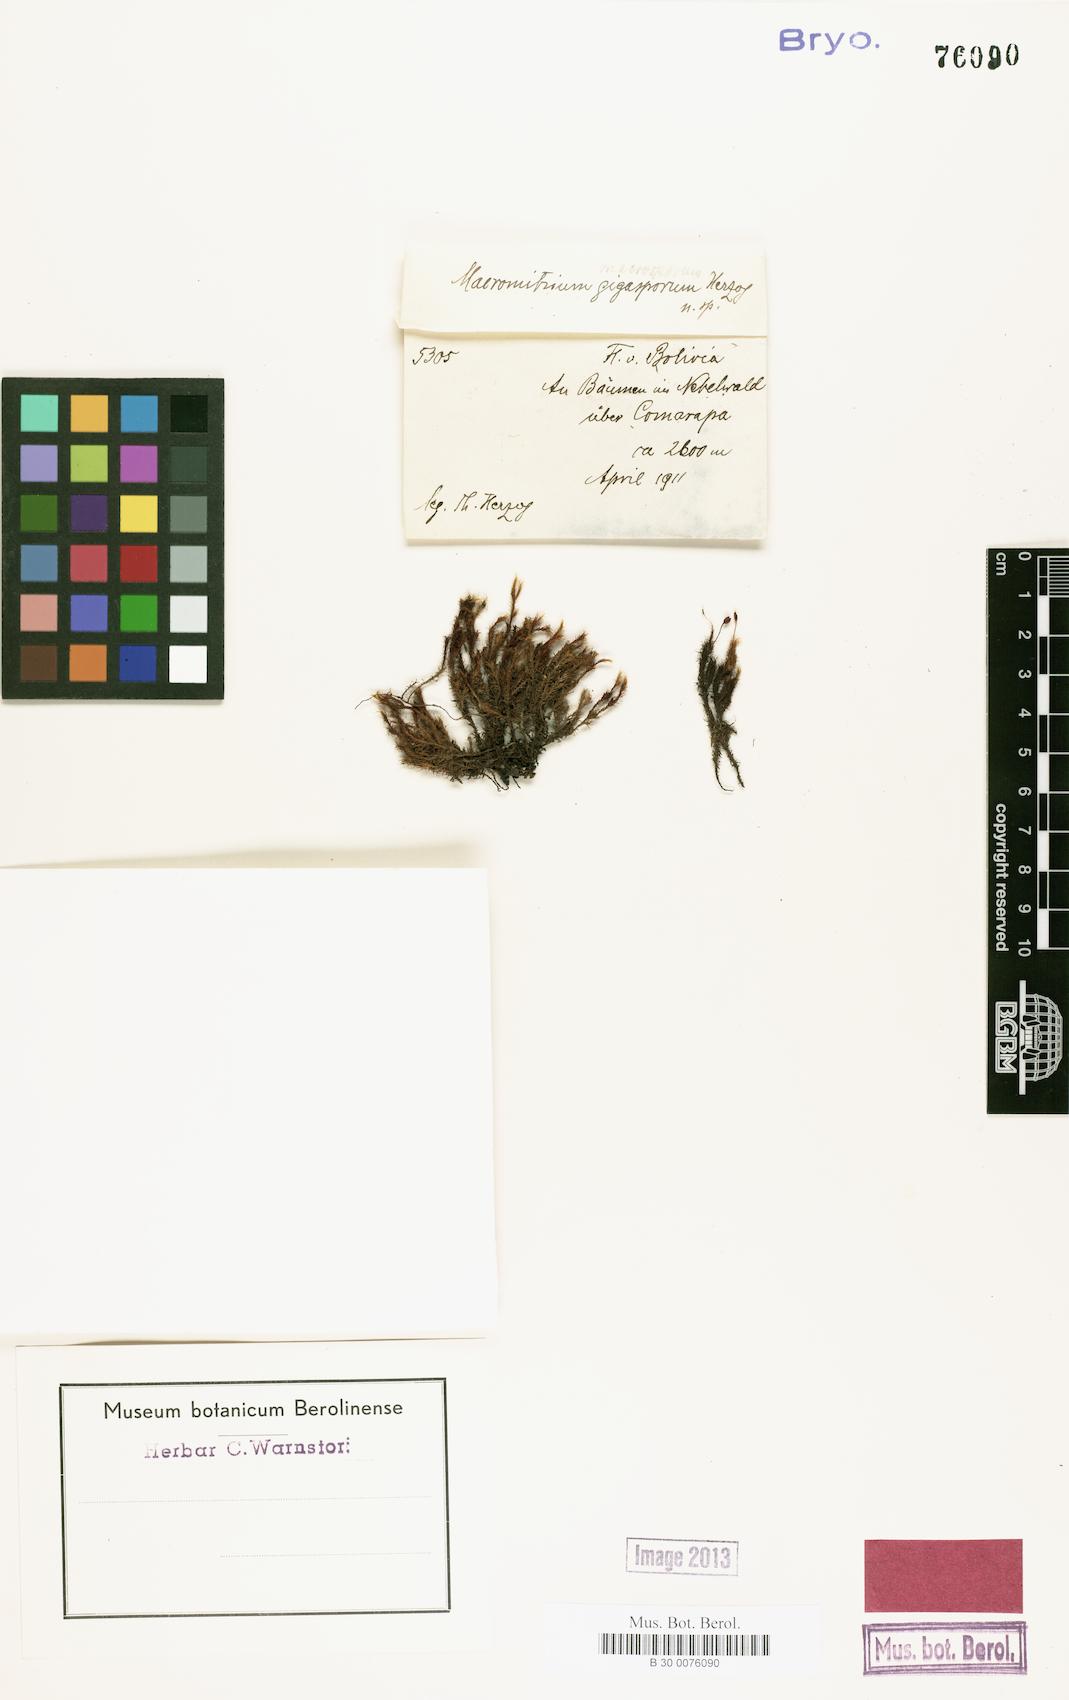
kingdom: Plantae
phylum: Bryophyta
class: Bryopsida
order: Orthotrichales
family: Orthotrichaceae
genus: Macromitrium
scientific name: Macromitrium gigasporum
